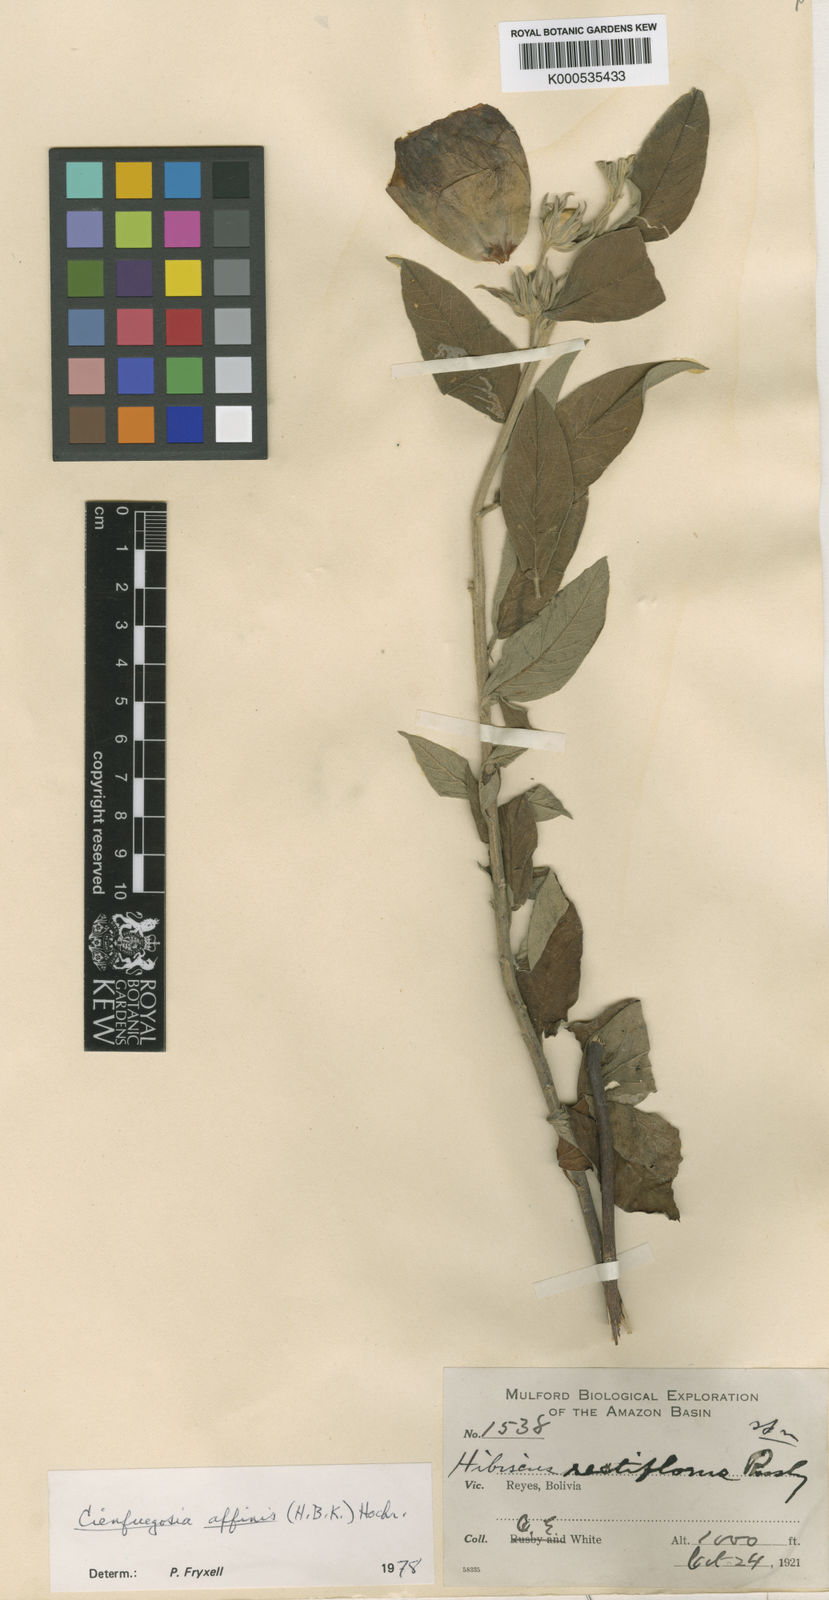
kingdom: Plantae
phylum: Tracheophyta
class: Magnoliopsida
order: Malvales
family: Malvaceae
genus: Cienfuegosia
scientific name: Cienfuegosia affinis
